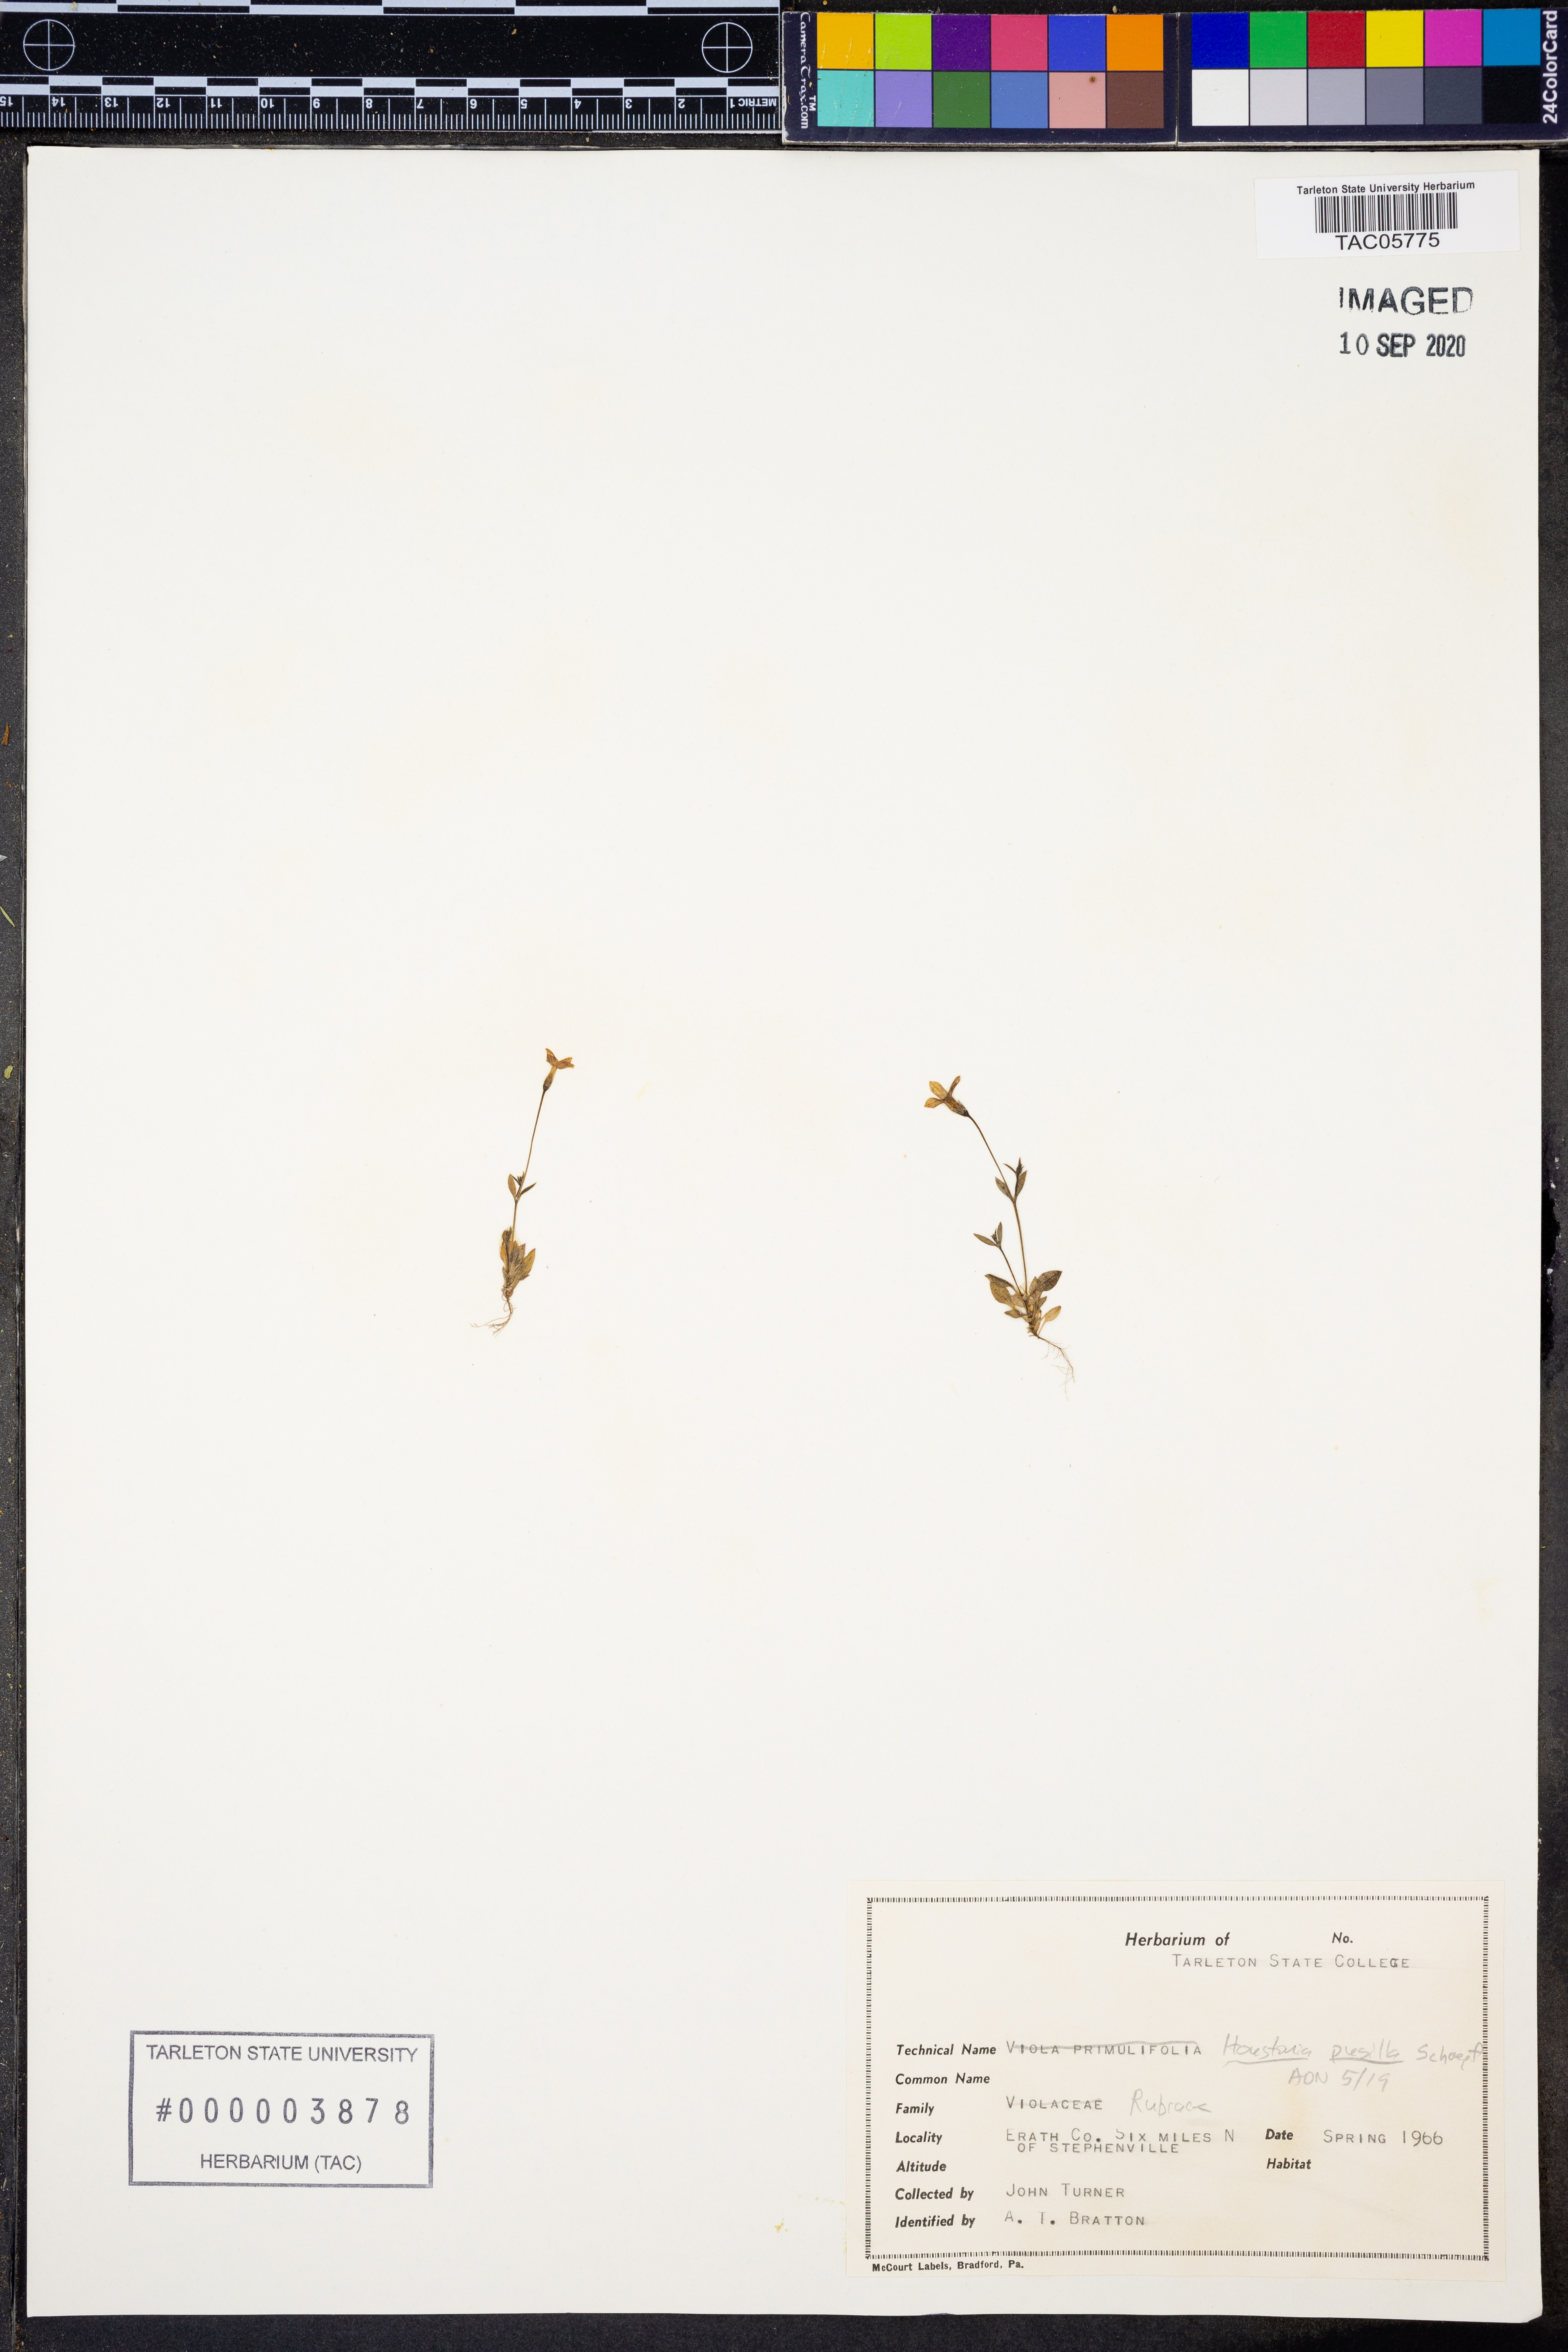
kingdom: Plantae
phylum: Tracheophyta
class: Magnoliopsida
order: Gentianales
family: Rubiaceae
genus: Houstonia
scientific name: Houstonia pusilla
